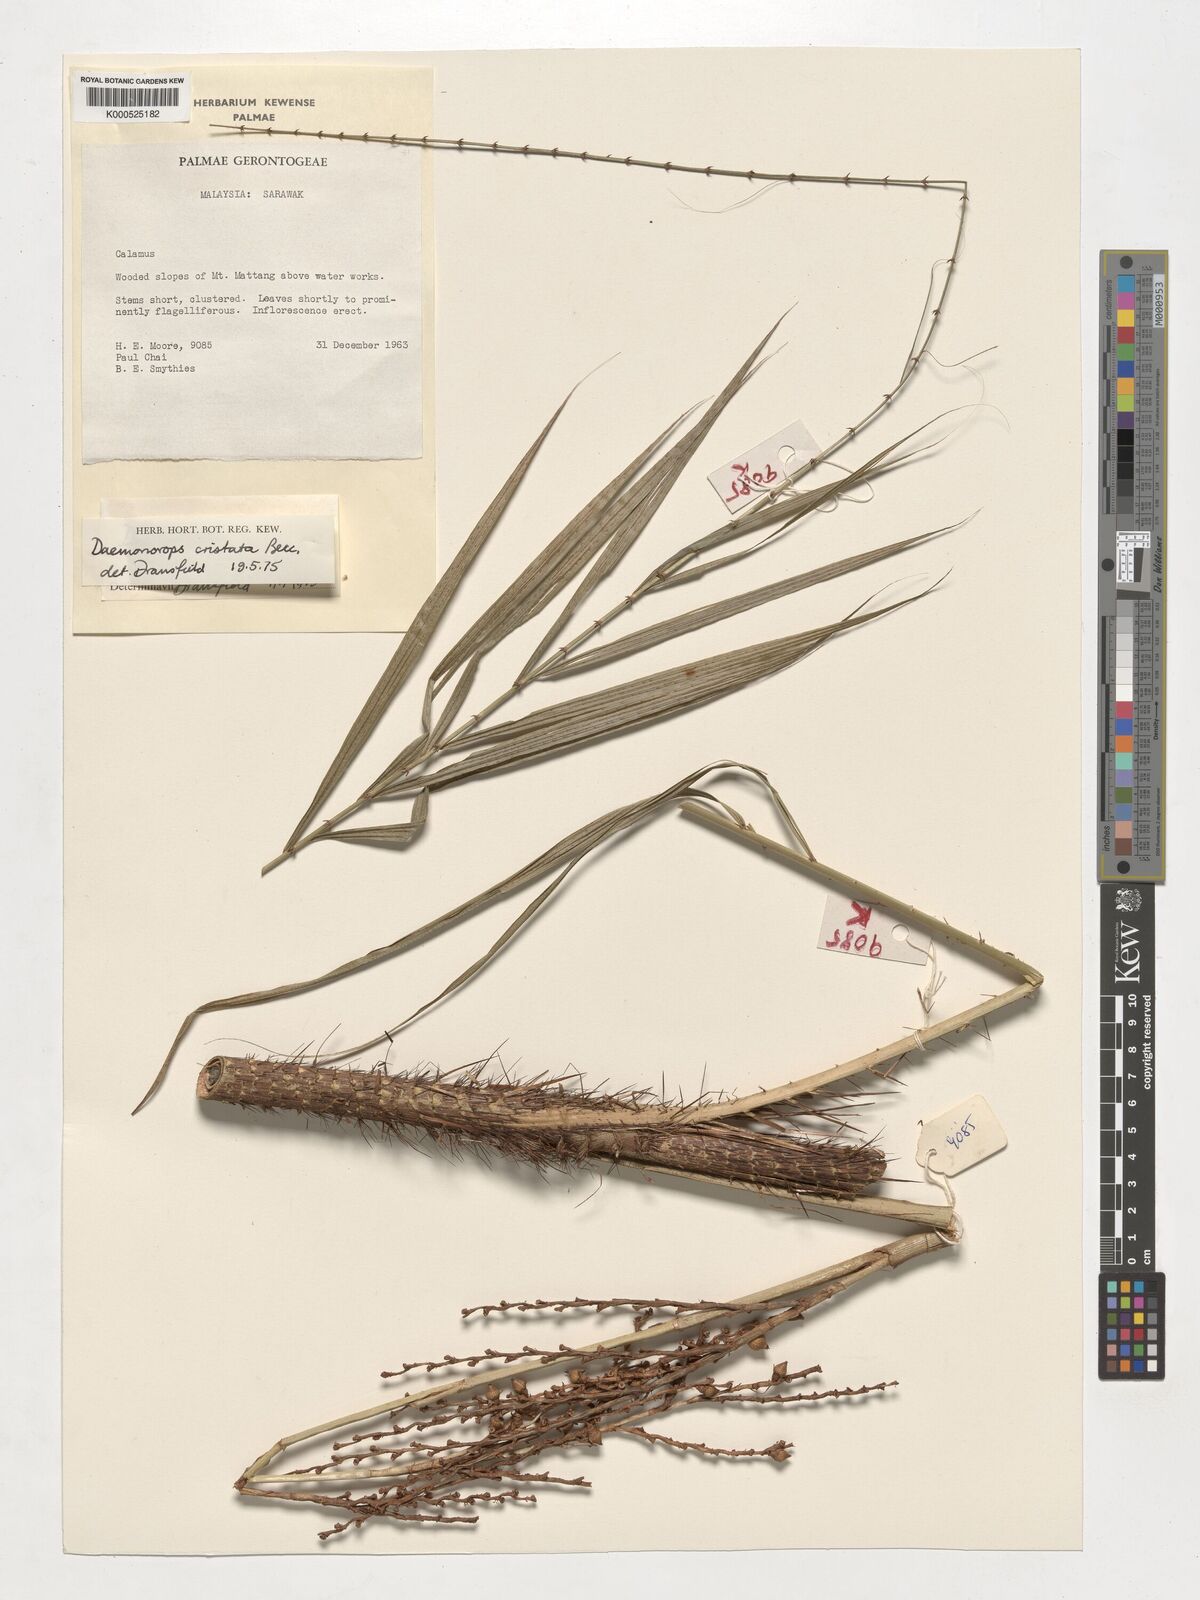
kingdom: Plantae
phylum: Tracheophyta
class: Liliopsida
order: Arecales
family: Arecaceae
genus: Calamus
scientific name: Calamus cristatus
